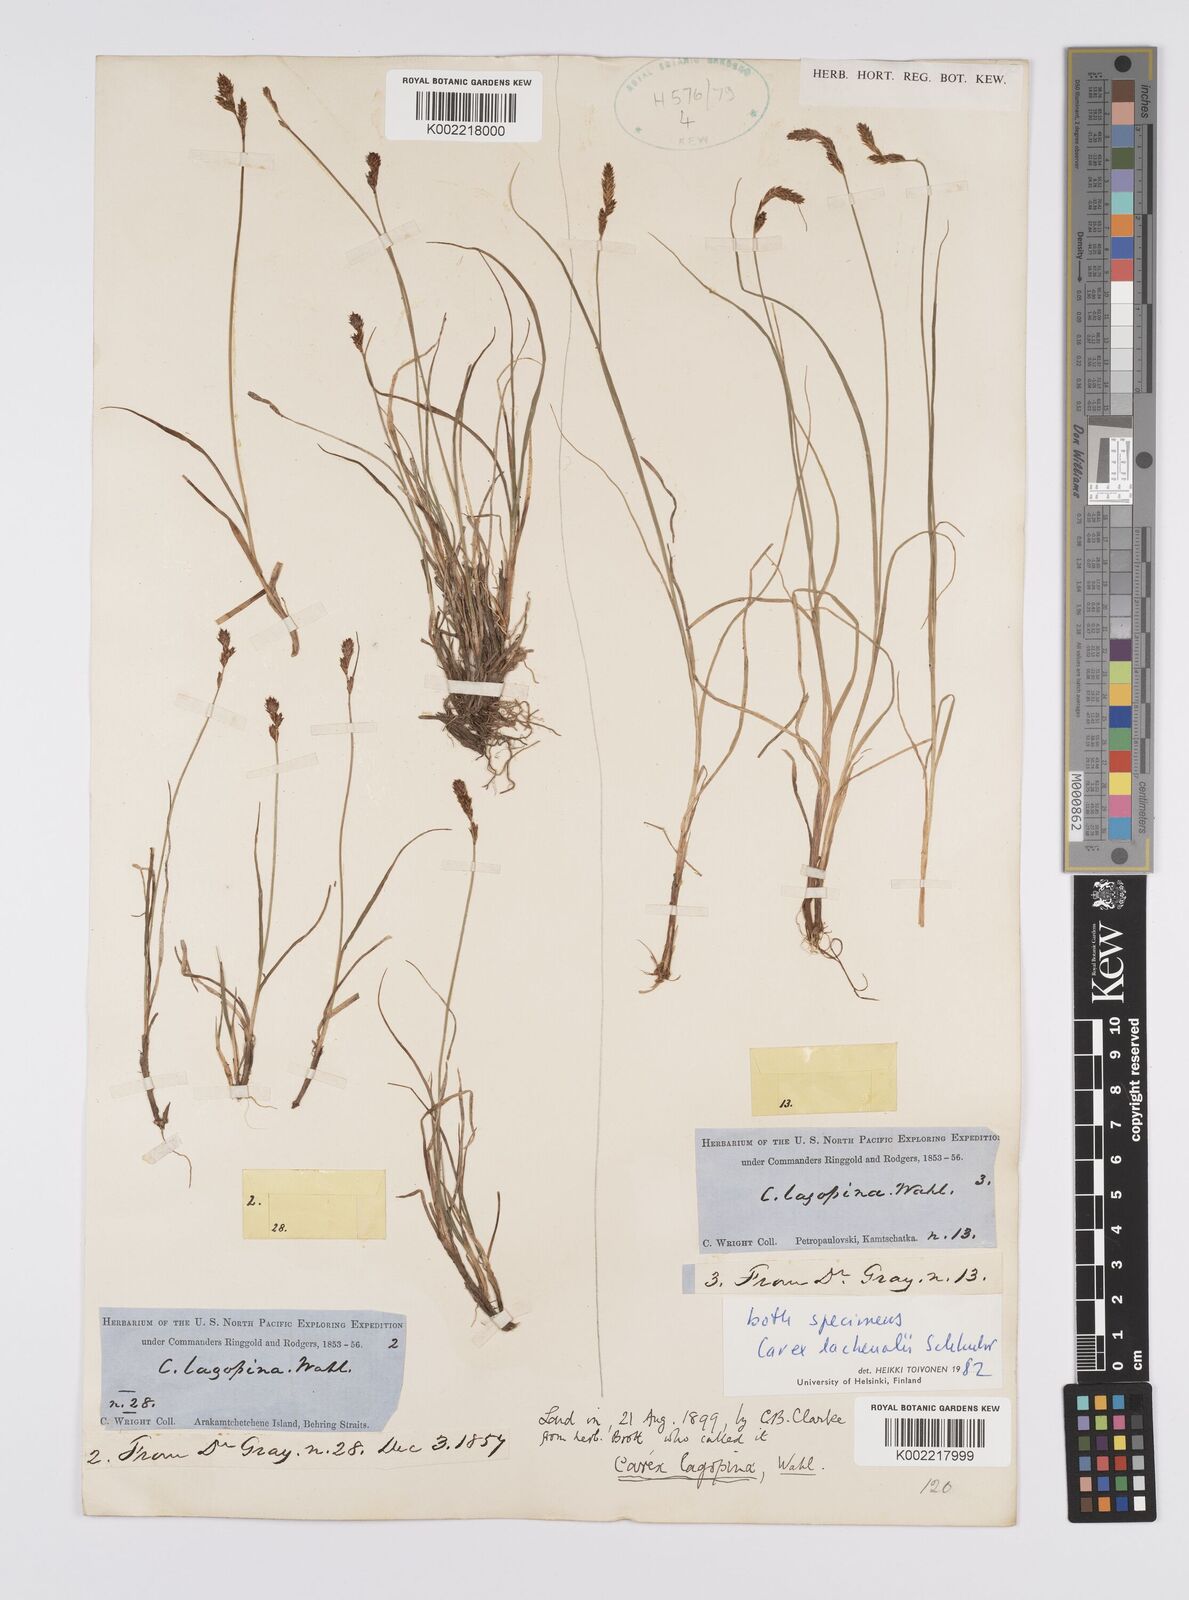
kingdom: Plantae
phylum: Tracheophyta
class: Liliopsida
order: Poales
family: Cyperaceae
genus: Carex
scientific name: Carex lachenalii
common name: Hare's-foot sedge
